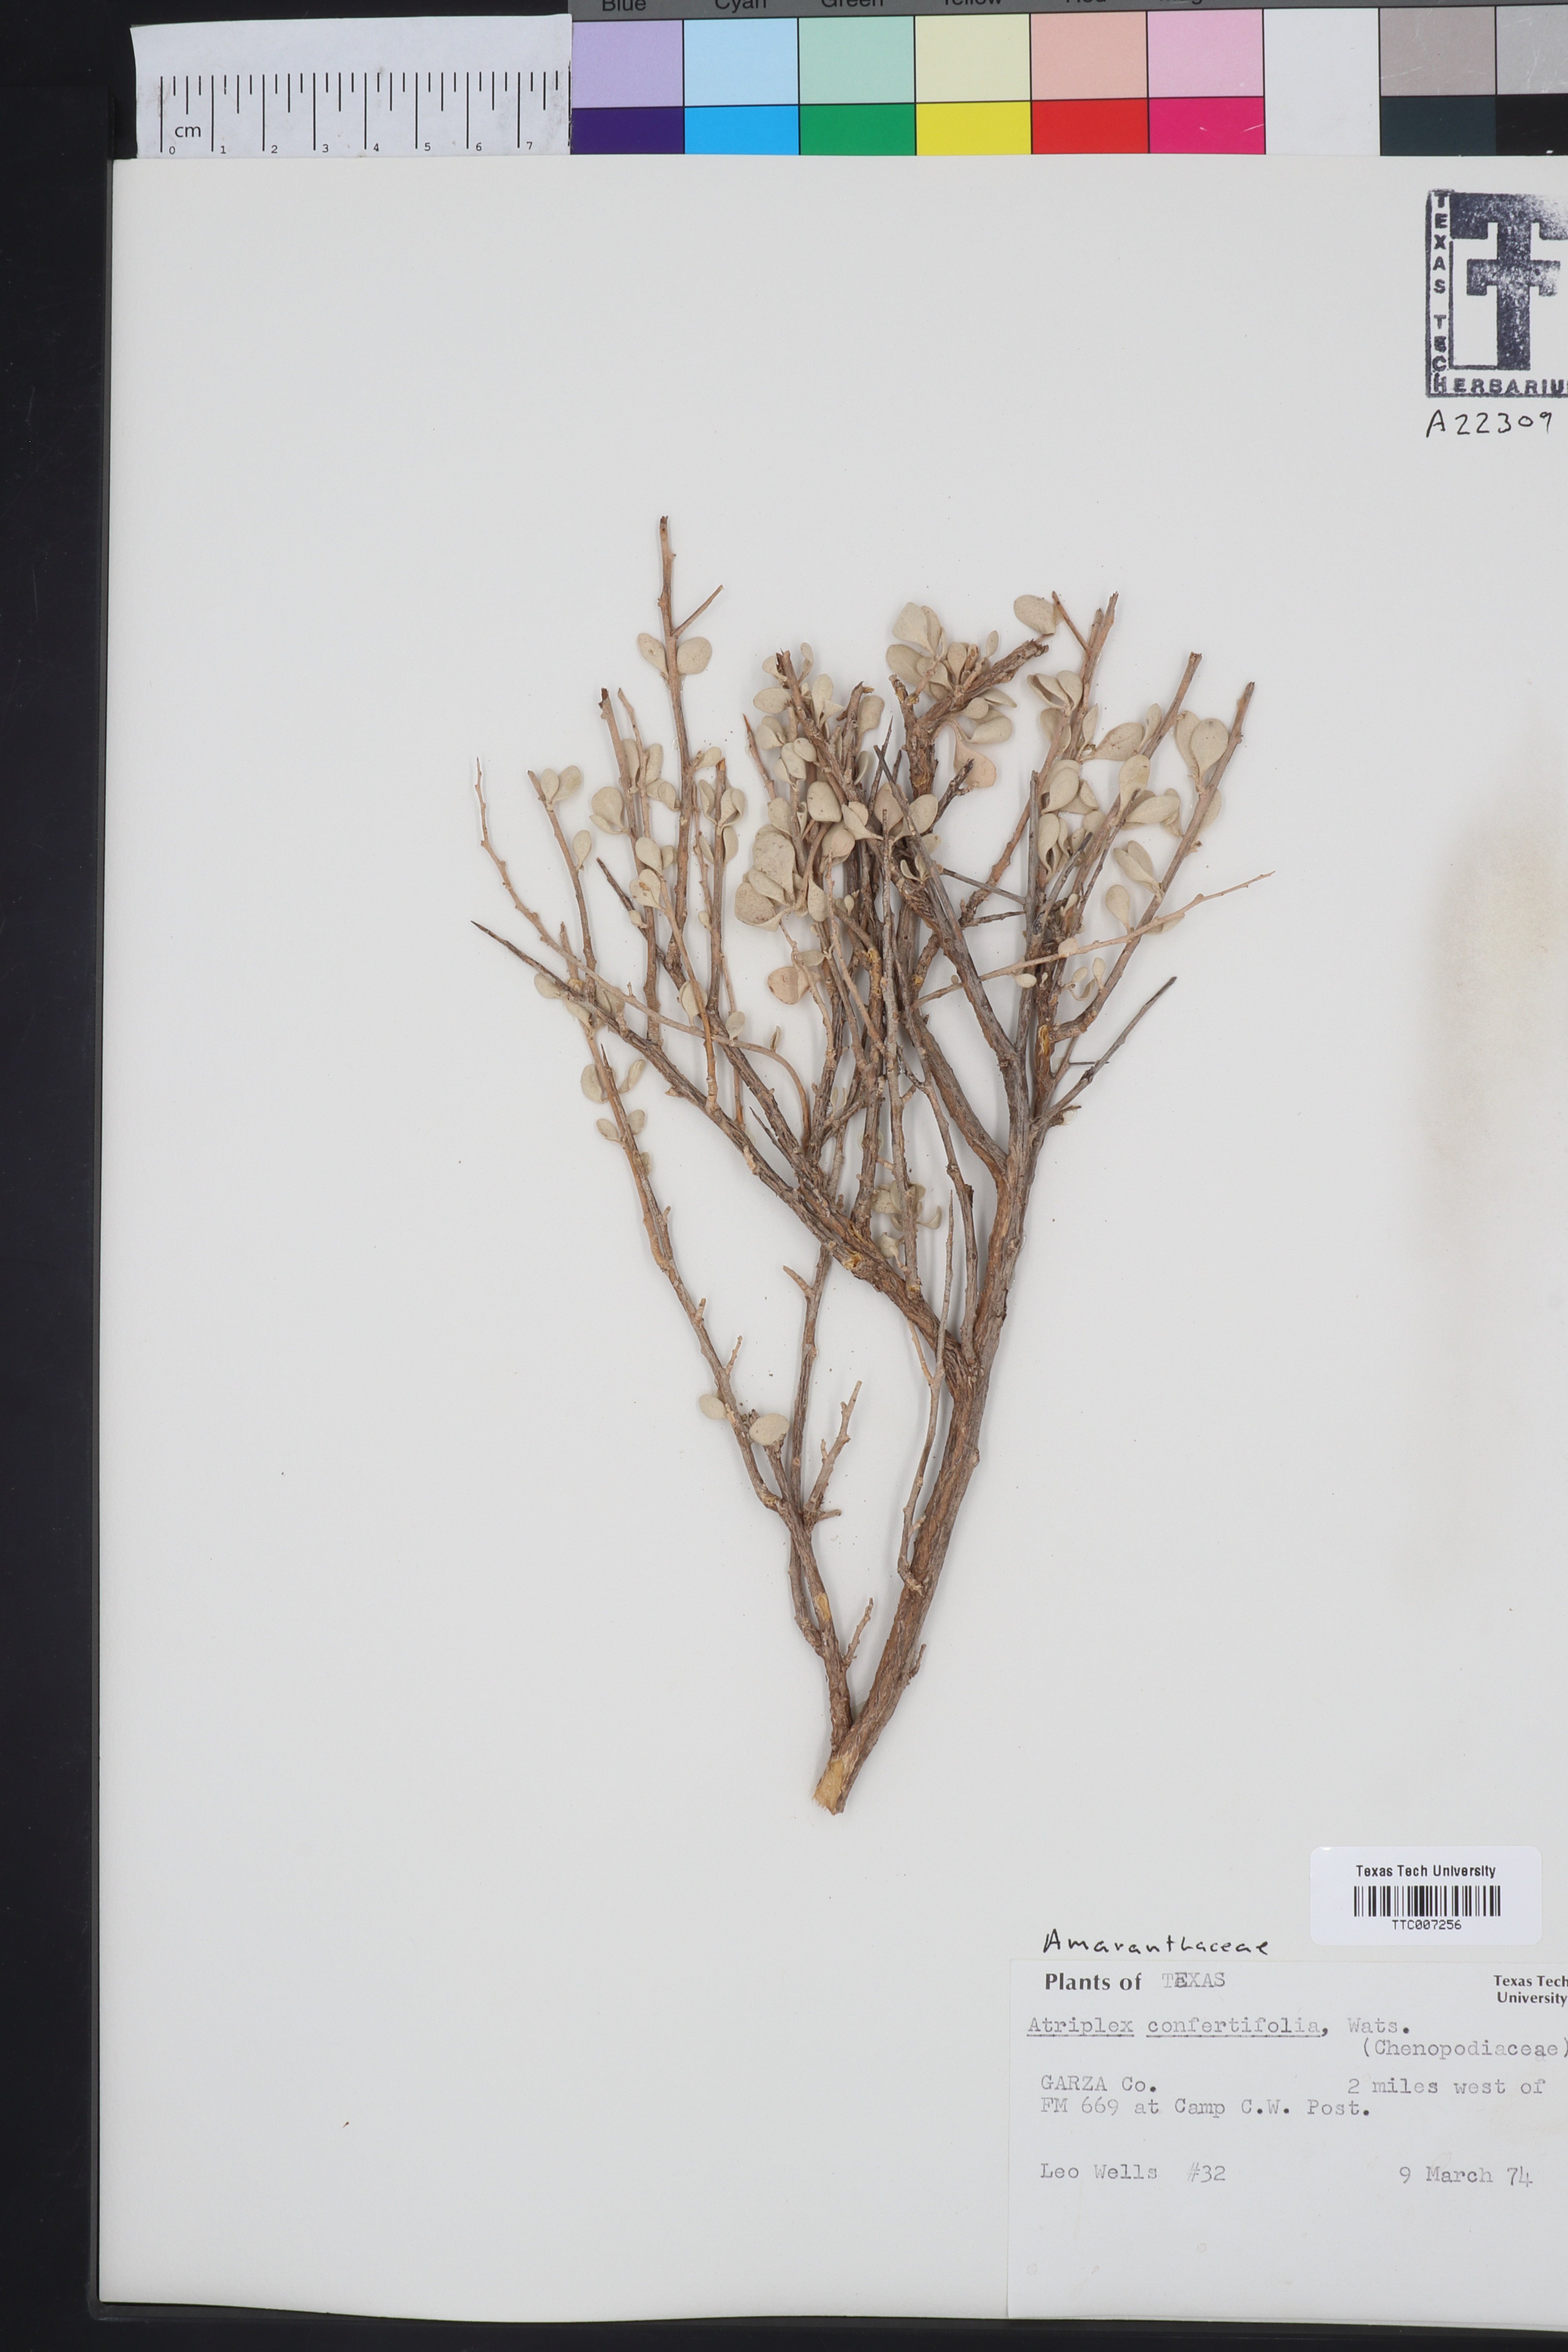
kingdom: Plantae
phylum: Tracheophyta
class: Magnoliopsida
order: Caryophyllales
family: Amaranthaceae
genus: Atriplex
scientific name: Atriplex confertifolia
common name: Shadscale
